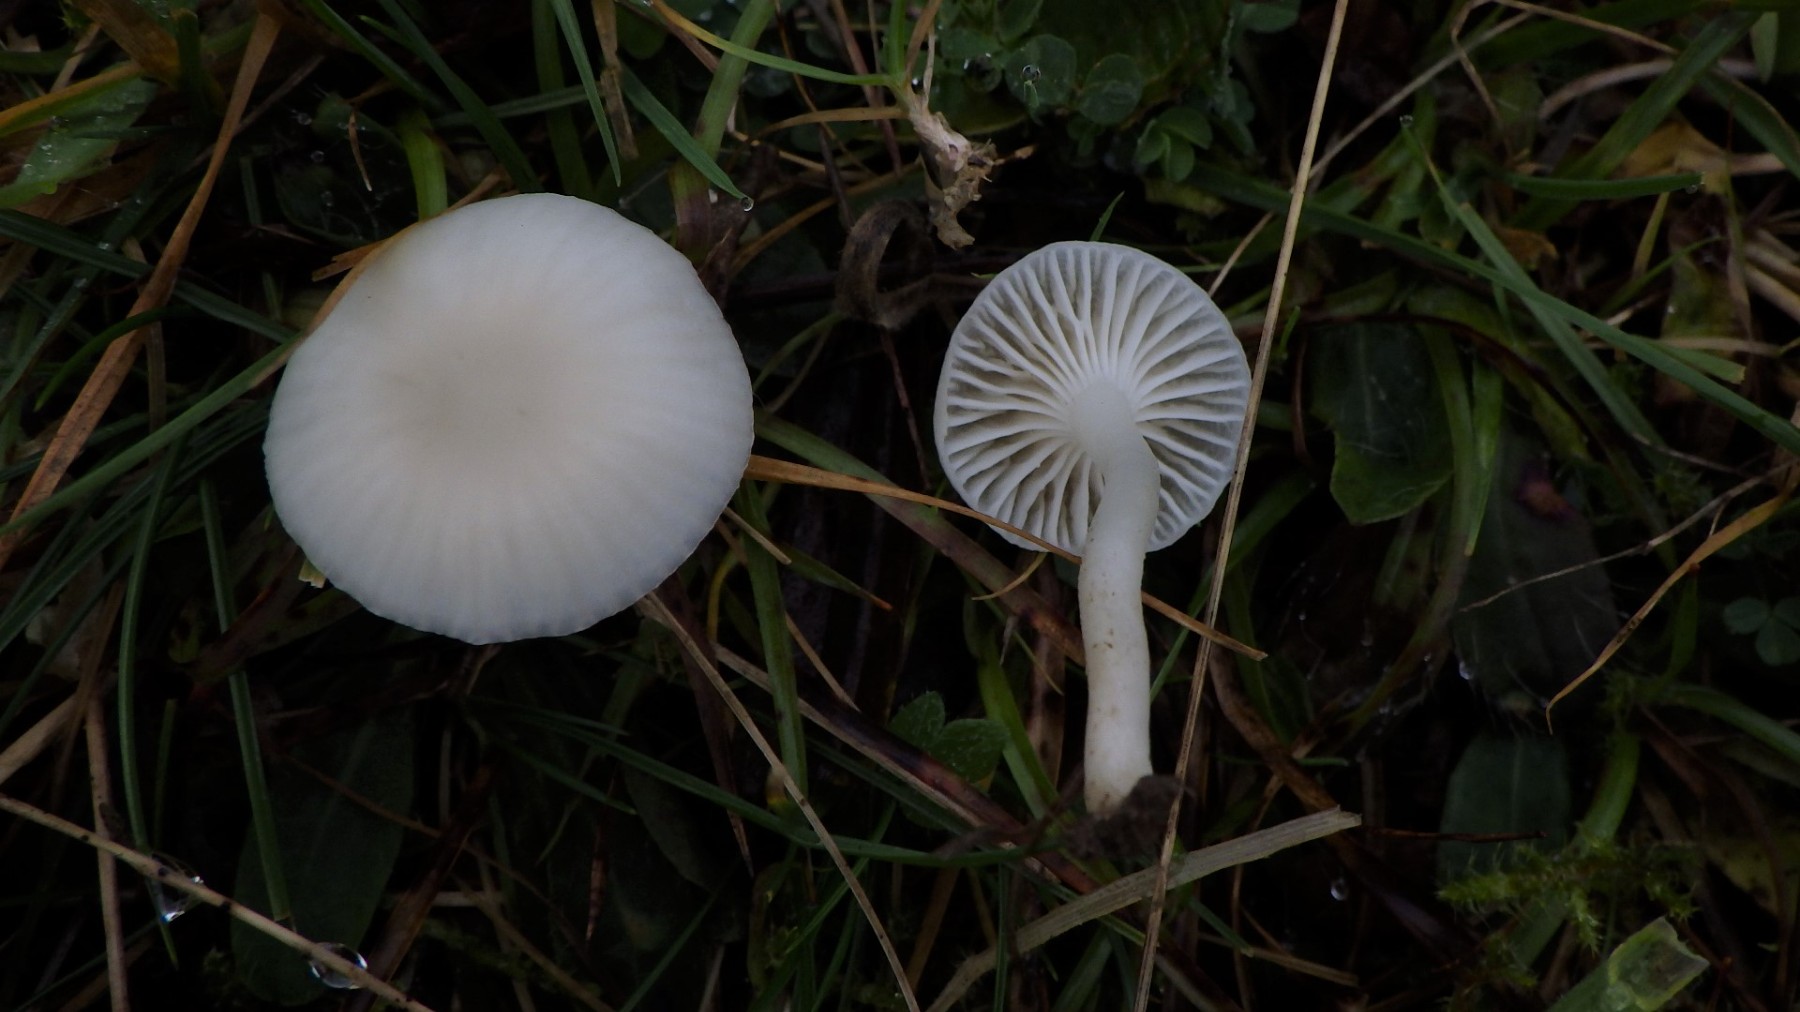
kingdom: Fungi
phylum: Basidiomycota
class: Agaricomycetes
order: Agaricales
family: Hygrophoraceae
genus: Cuphophyllus
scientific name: Cuphophyllus virgineus
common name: snehvid vokshat
